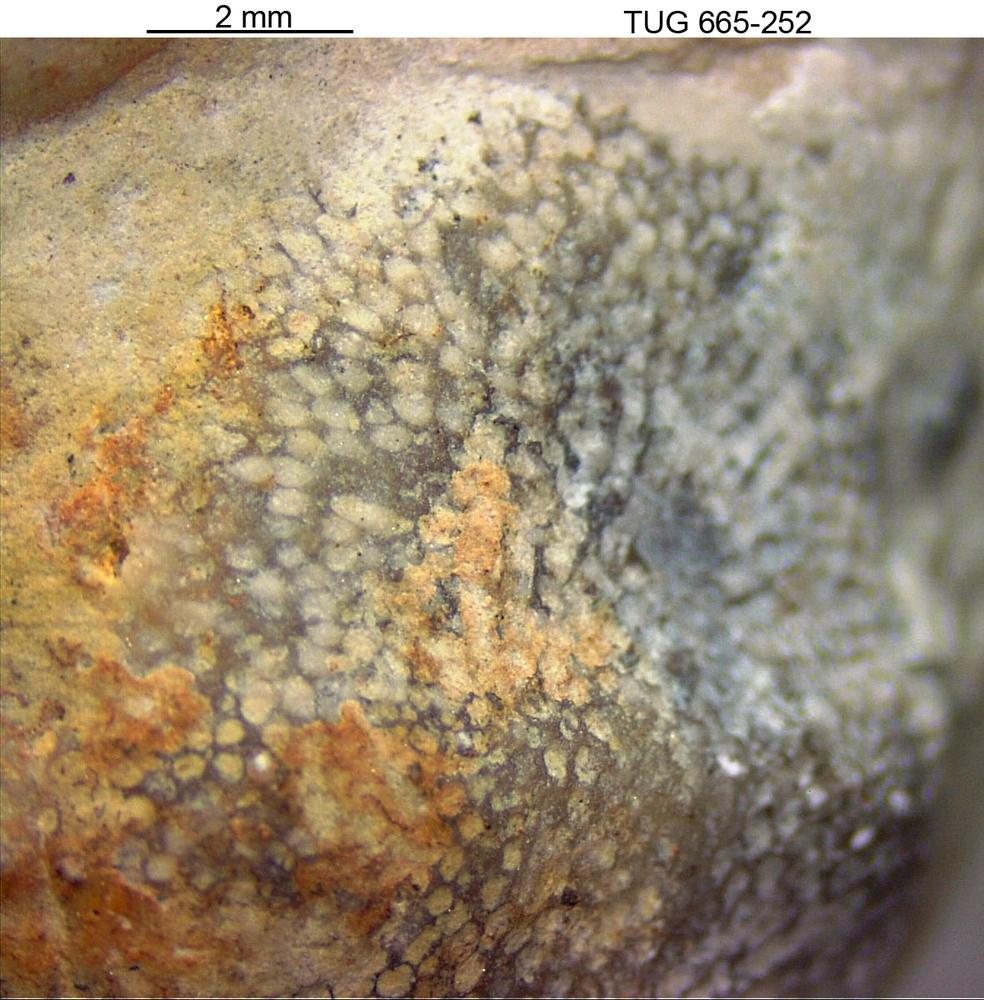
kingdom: Animalia
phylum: Bryozoa
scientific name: Bryozoa
